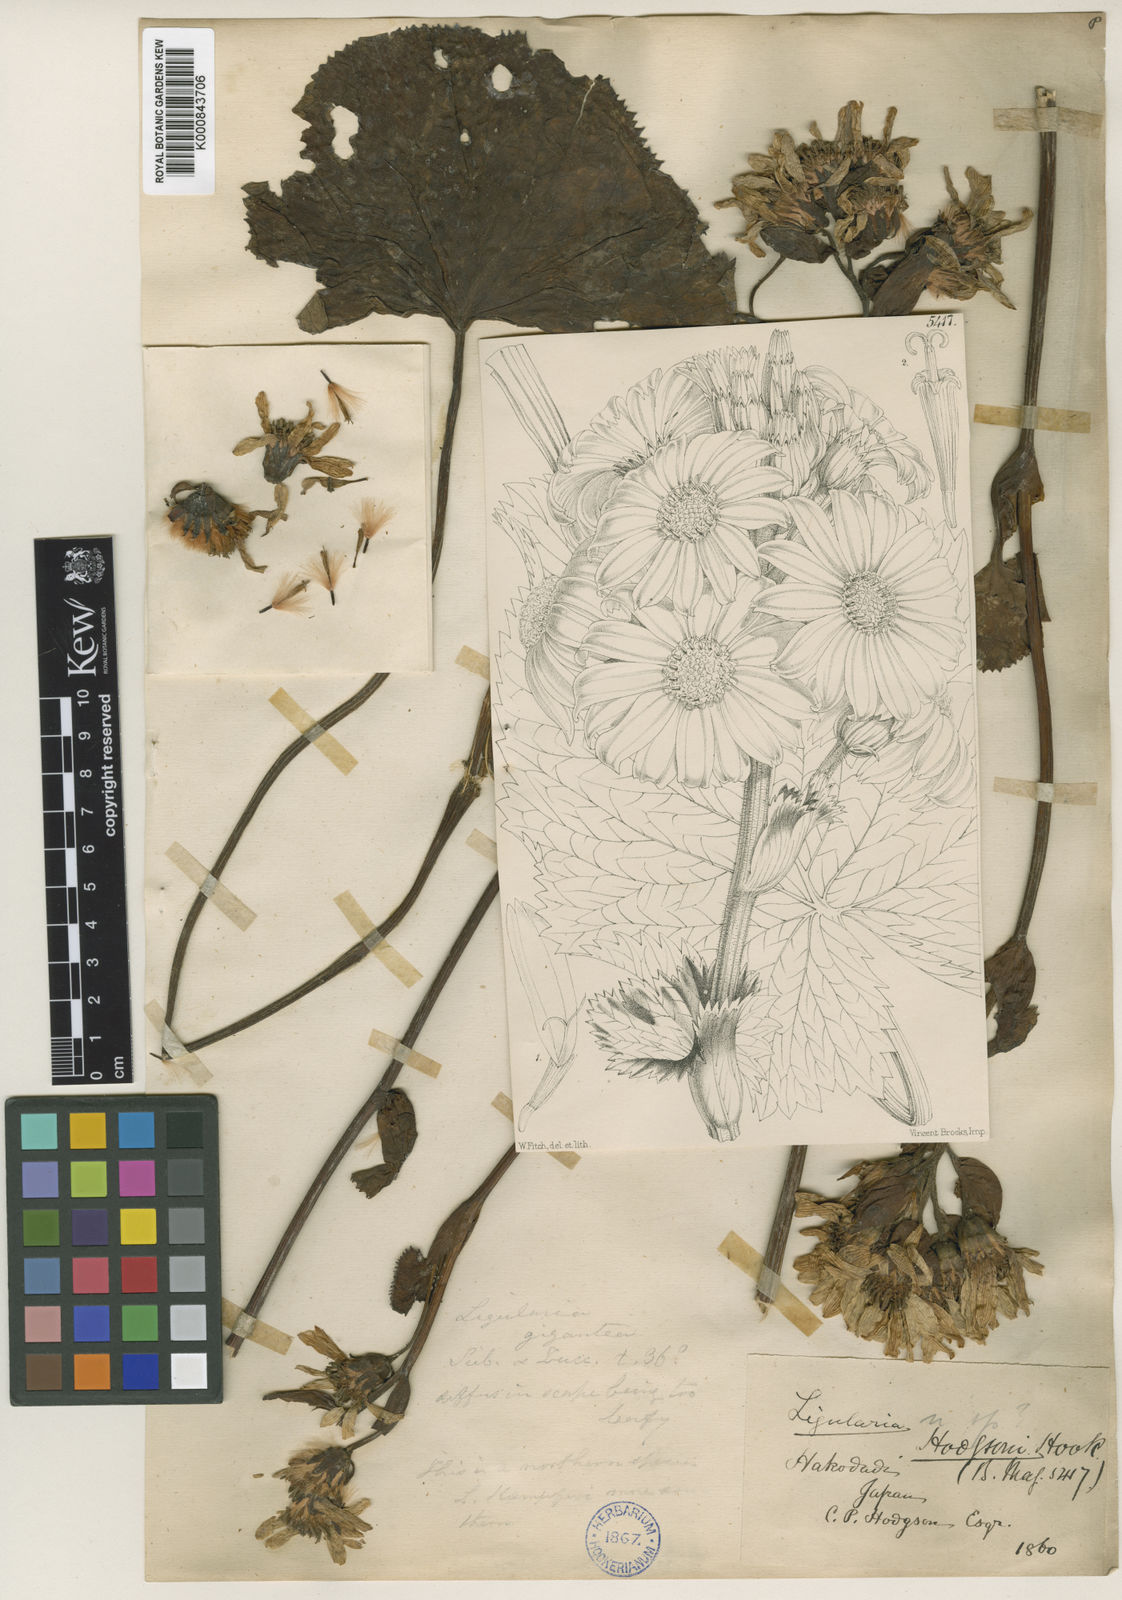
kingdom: Plantae
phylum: Tracheophyta
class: Magnoliopsida
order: Asterales
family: Asteraceae
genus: Ligularia
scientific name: Ligularia hodgsonii
